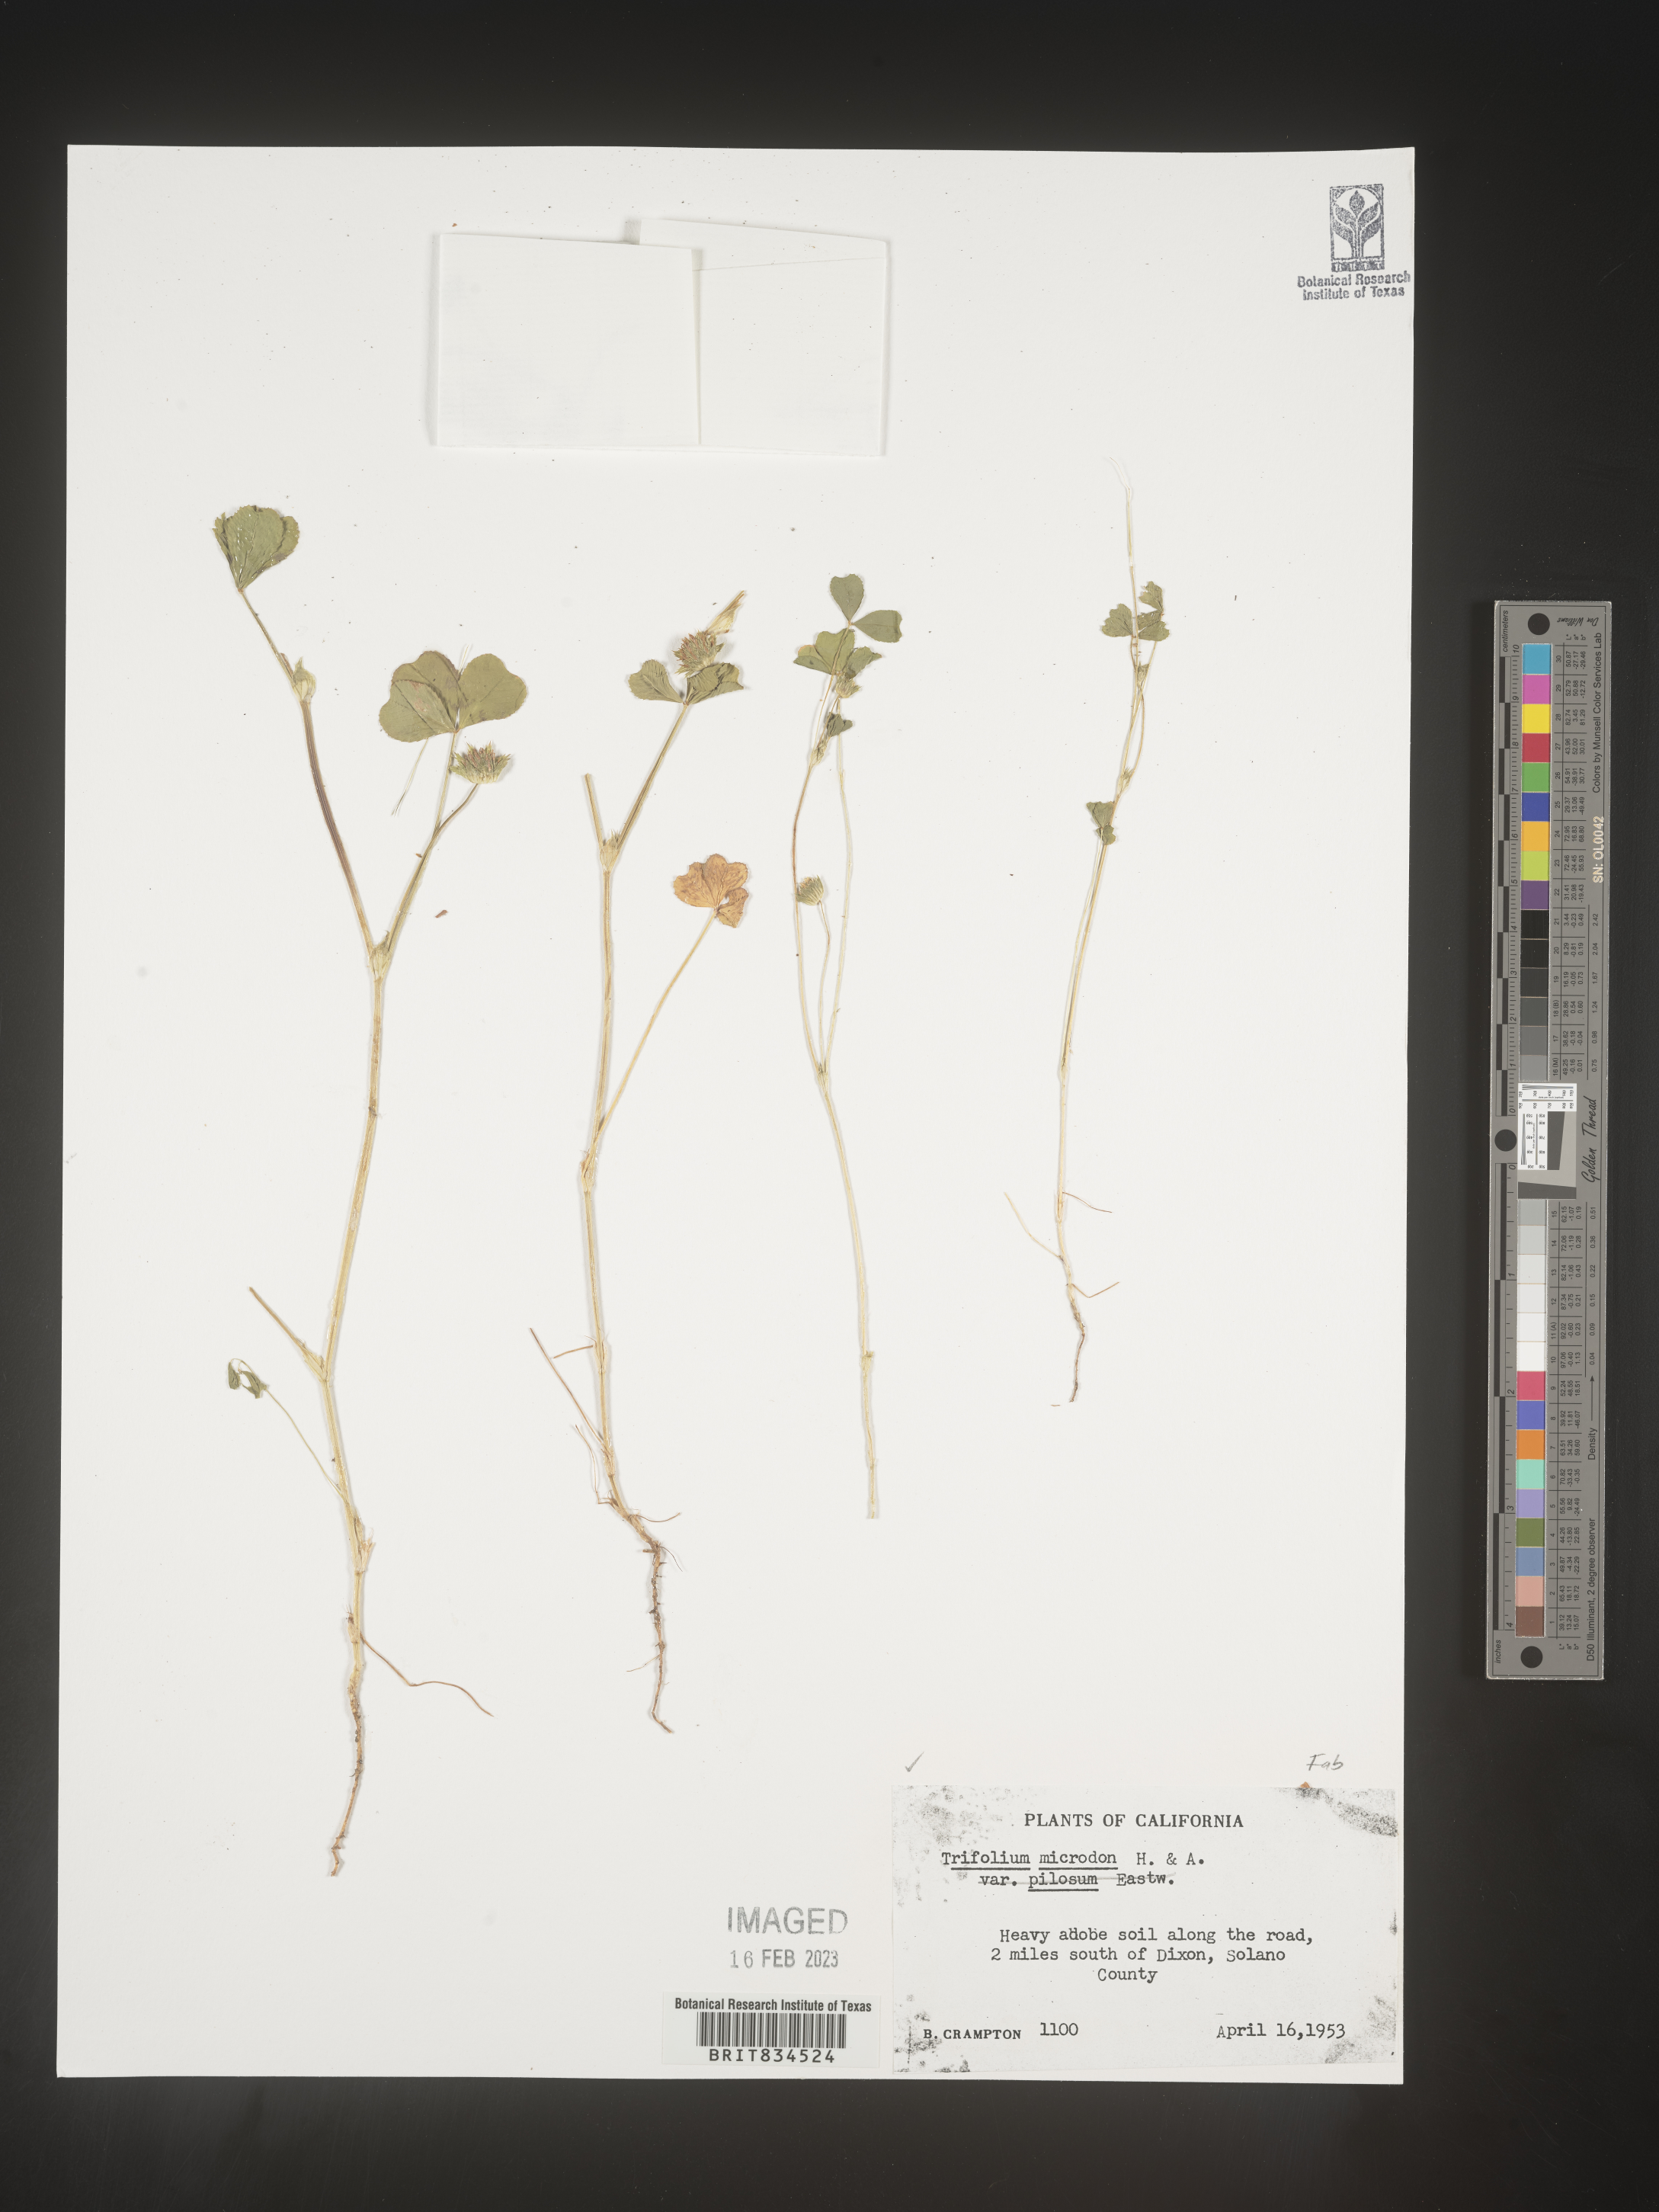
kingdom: Plantae
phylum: Tracheophyta
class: Magnoliopsida
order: Fabales
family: Fabaceae
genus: Trifolium
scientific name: Trifolium
